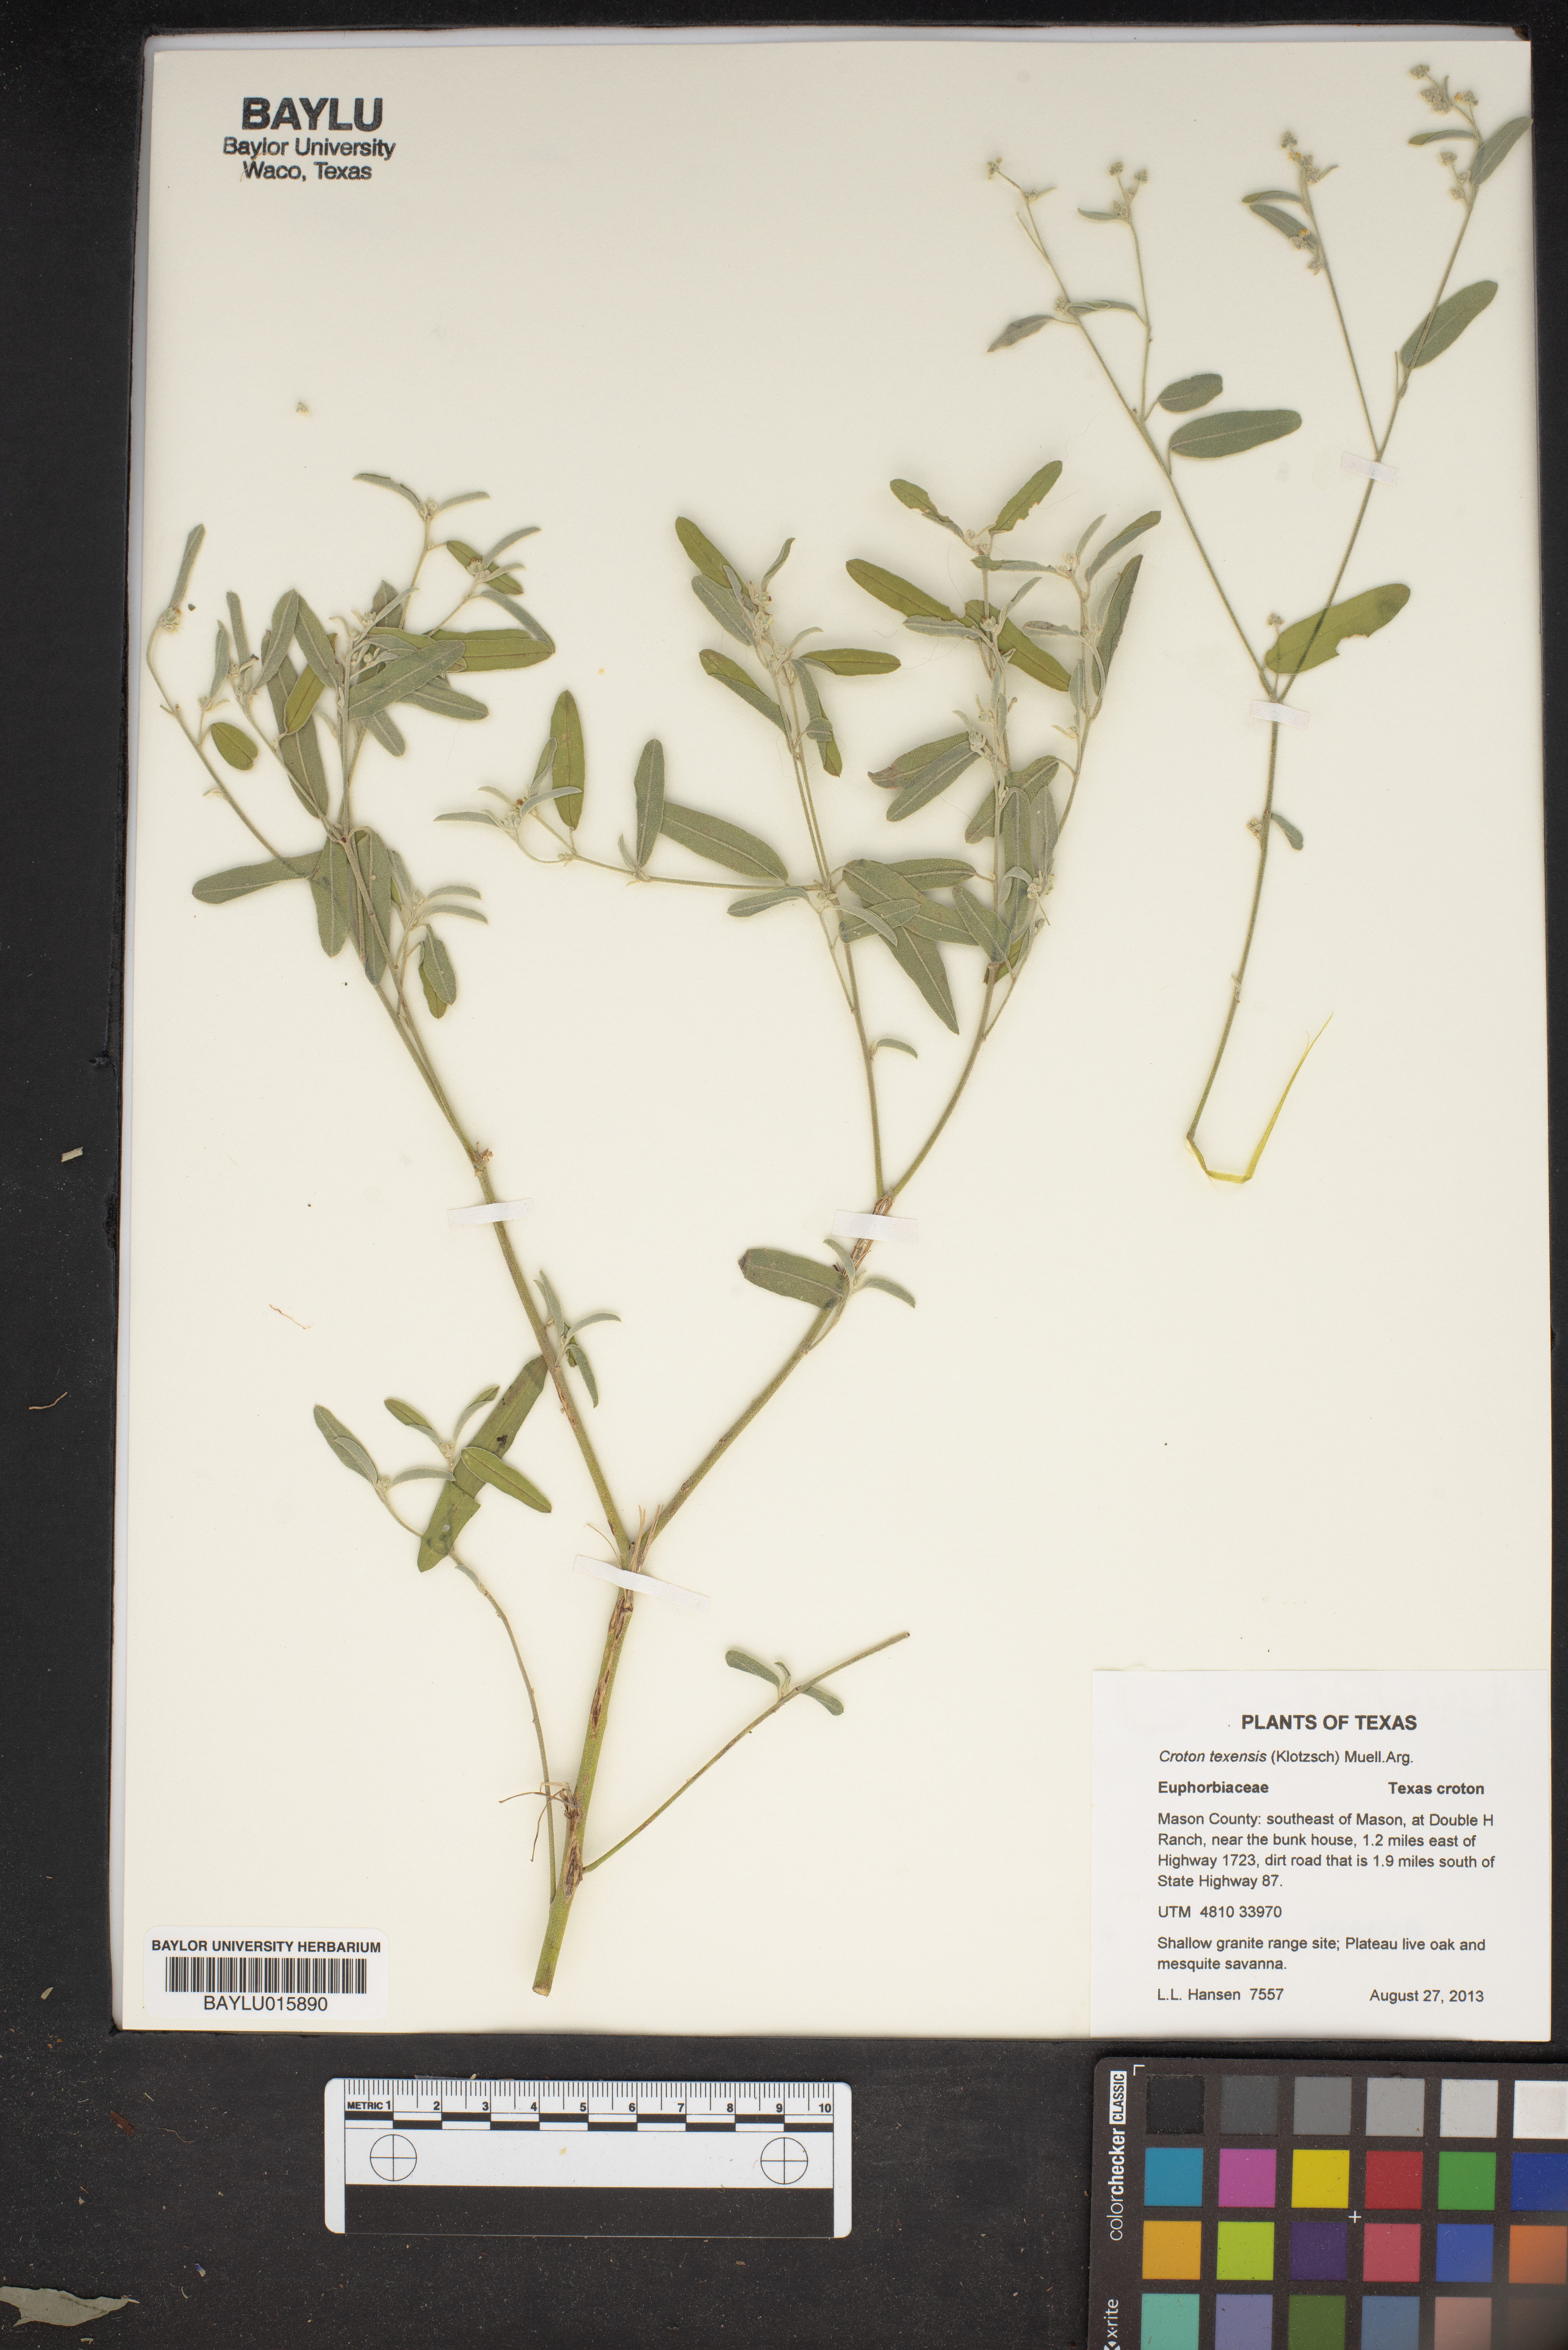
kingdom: Plantae
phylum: Tracheophyta
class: Magnoliopsida
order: Malpighiales
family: Euphorbiaceae
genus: Croton
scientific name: Croton texensis
